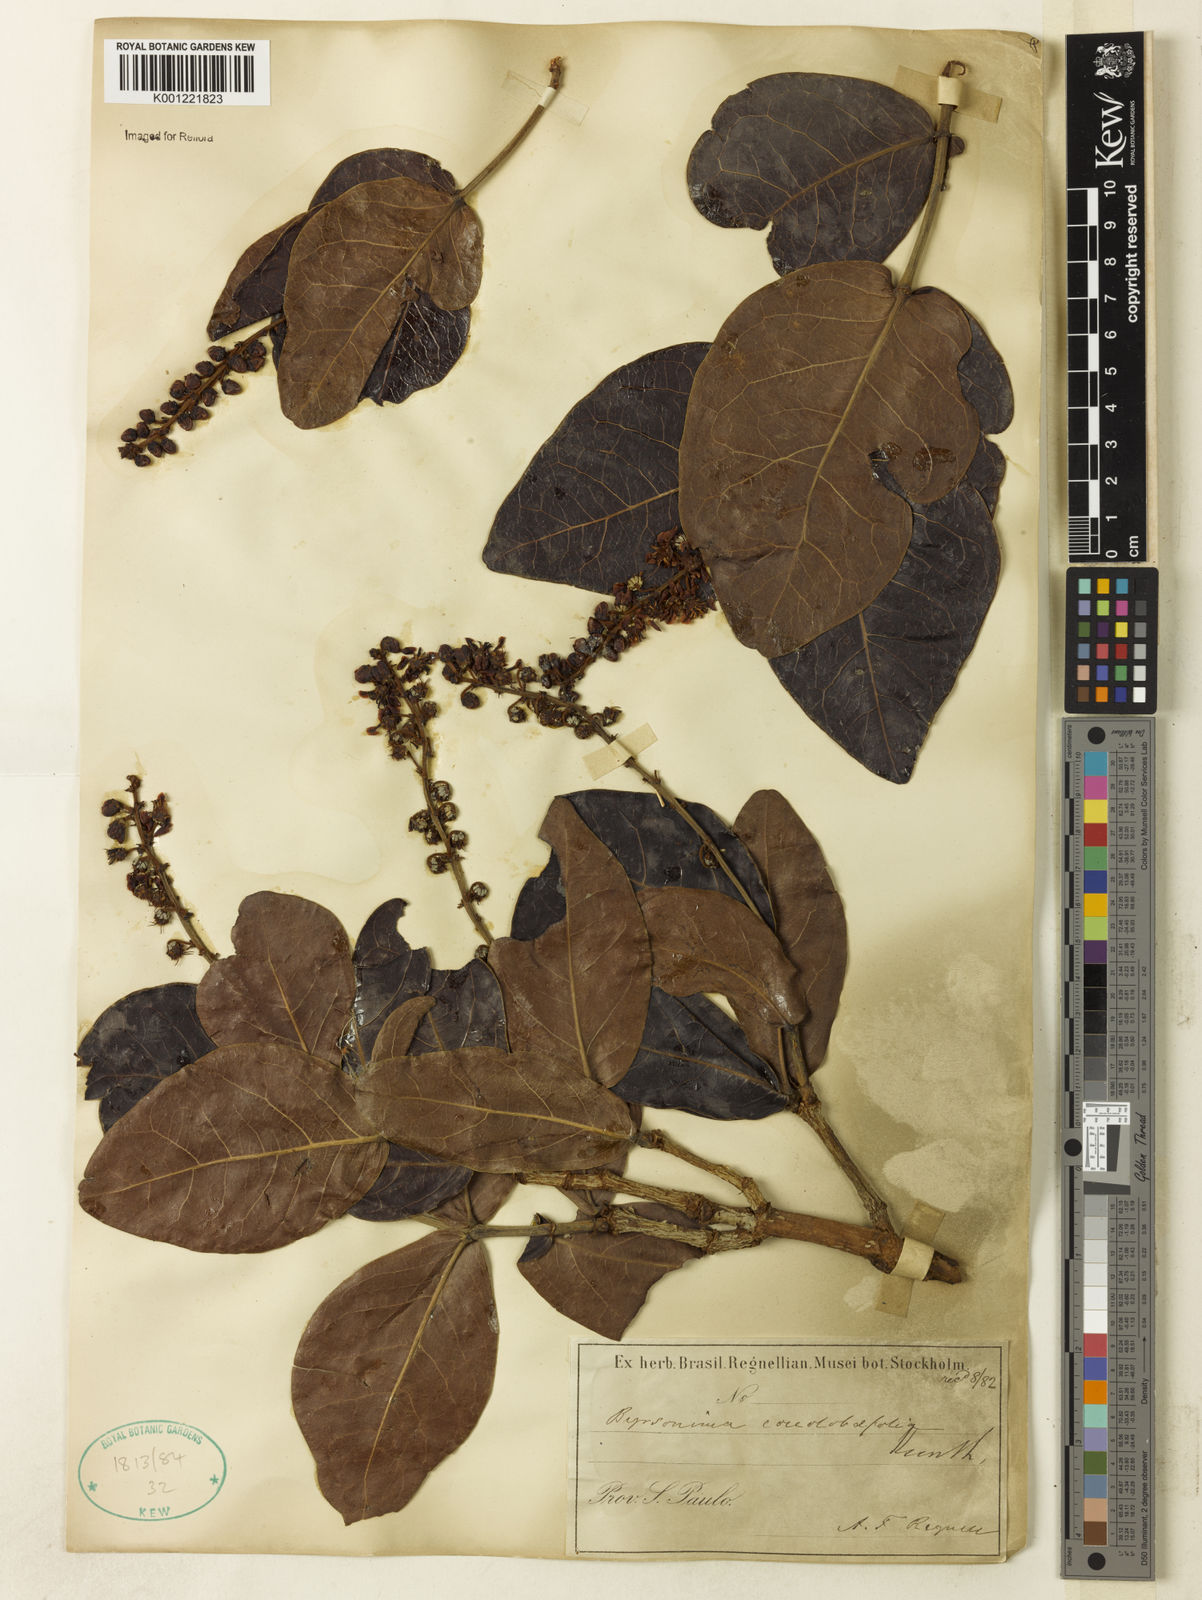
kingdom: Plantae
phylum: Tracheophyta
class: Magnoliopsida
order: Malpighiales
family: Malpighiaceae
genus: Byrsonima
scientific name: Byrsonima coccolobifolia
